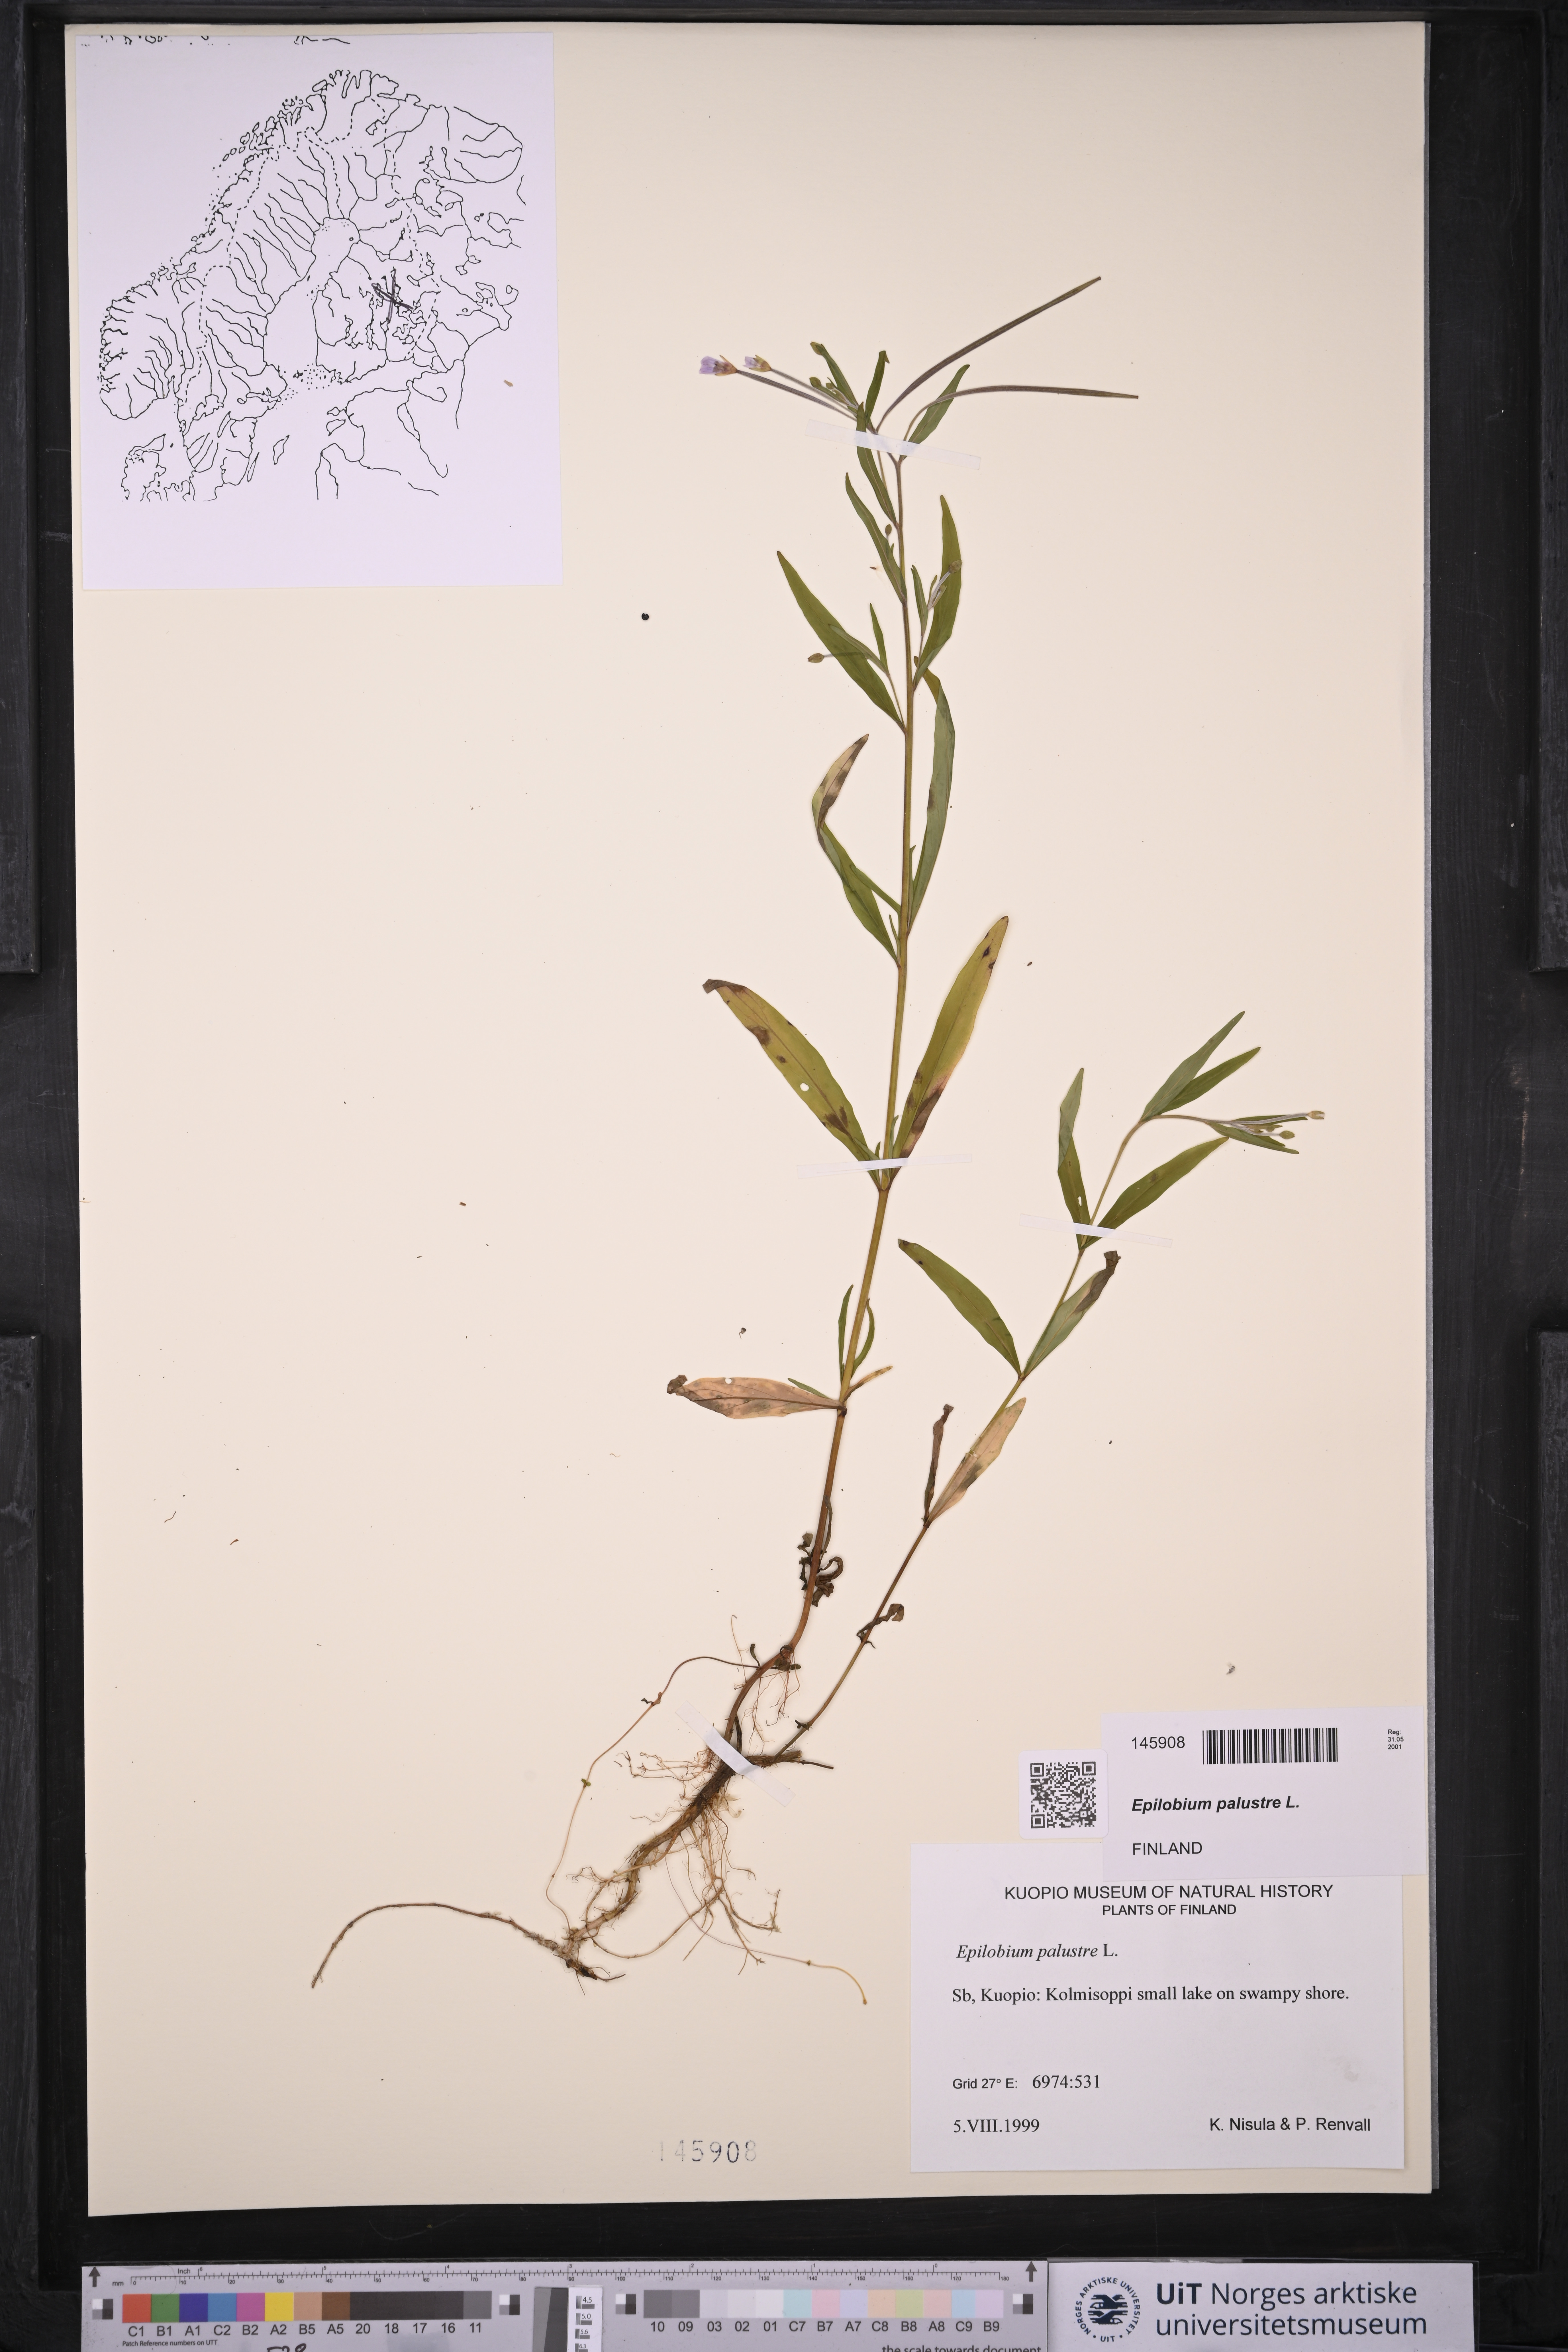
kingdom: Plantae
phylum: Tracheophyta
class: Magnoliopsida
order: Myrtales
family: Onagraceae
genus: Epilobium
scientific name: Epilobium palustre
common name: Marsh willowherb
